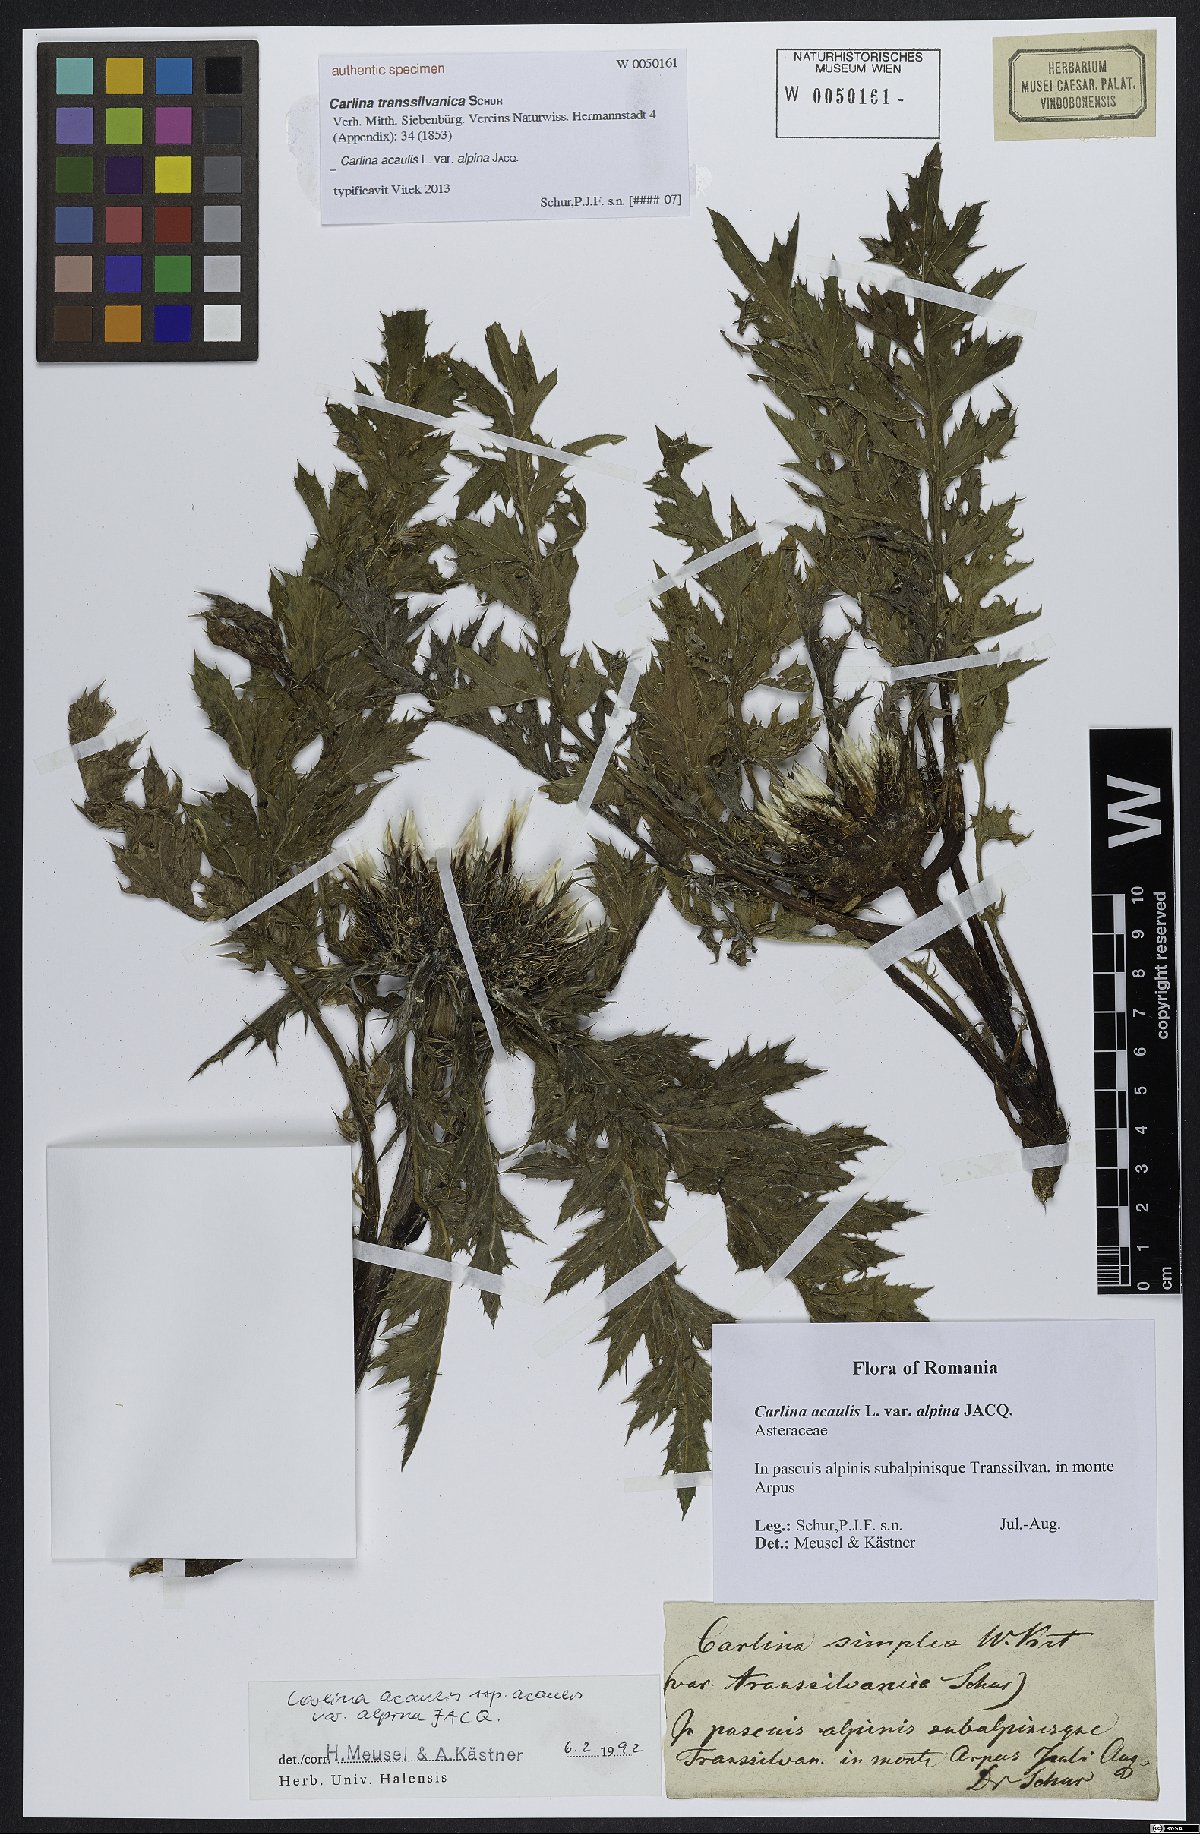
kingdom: Plantae
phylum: Tracheophyta
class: Magnoliopsida
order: Asterales
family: Asteraceae
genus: Carlina
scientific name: Carlina acaulis
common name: Stemless carline thistle
